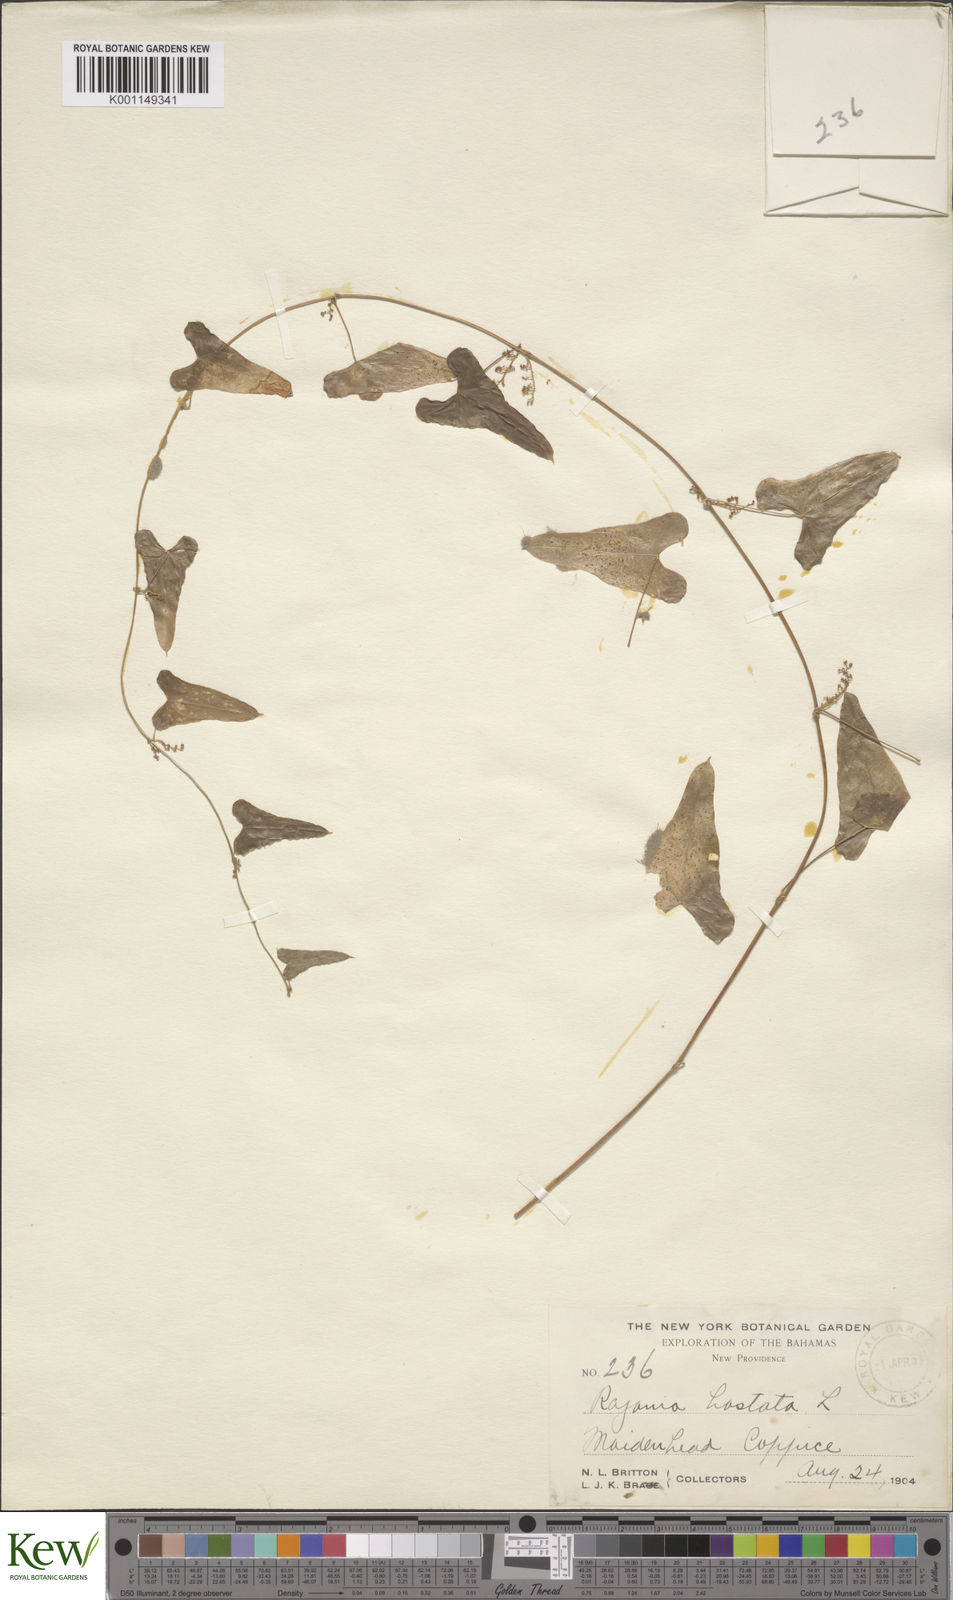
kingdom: Plantae
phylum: Tracheophyta
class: Liliopsida
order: Dioscoreales
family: Dioscoreaceae
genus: Dioscorea
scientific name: Dioscorea mexicana
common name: Mexican yam
